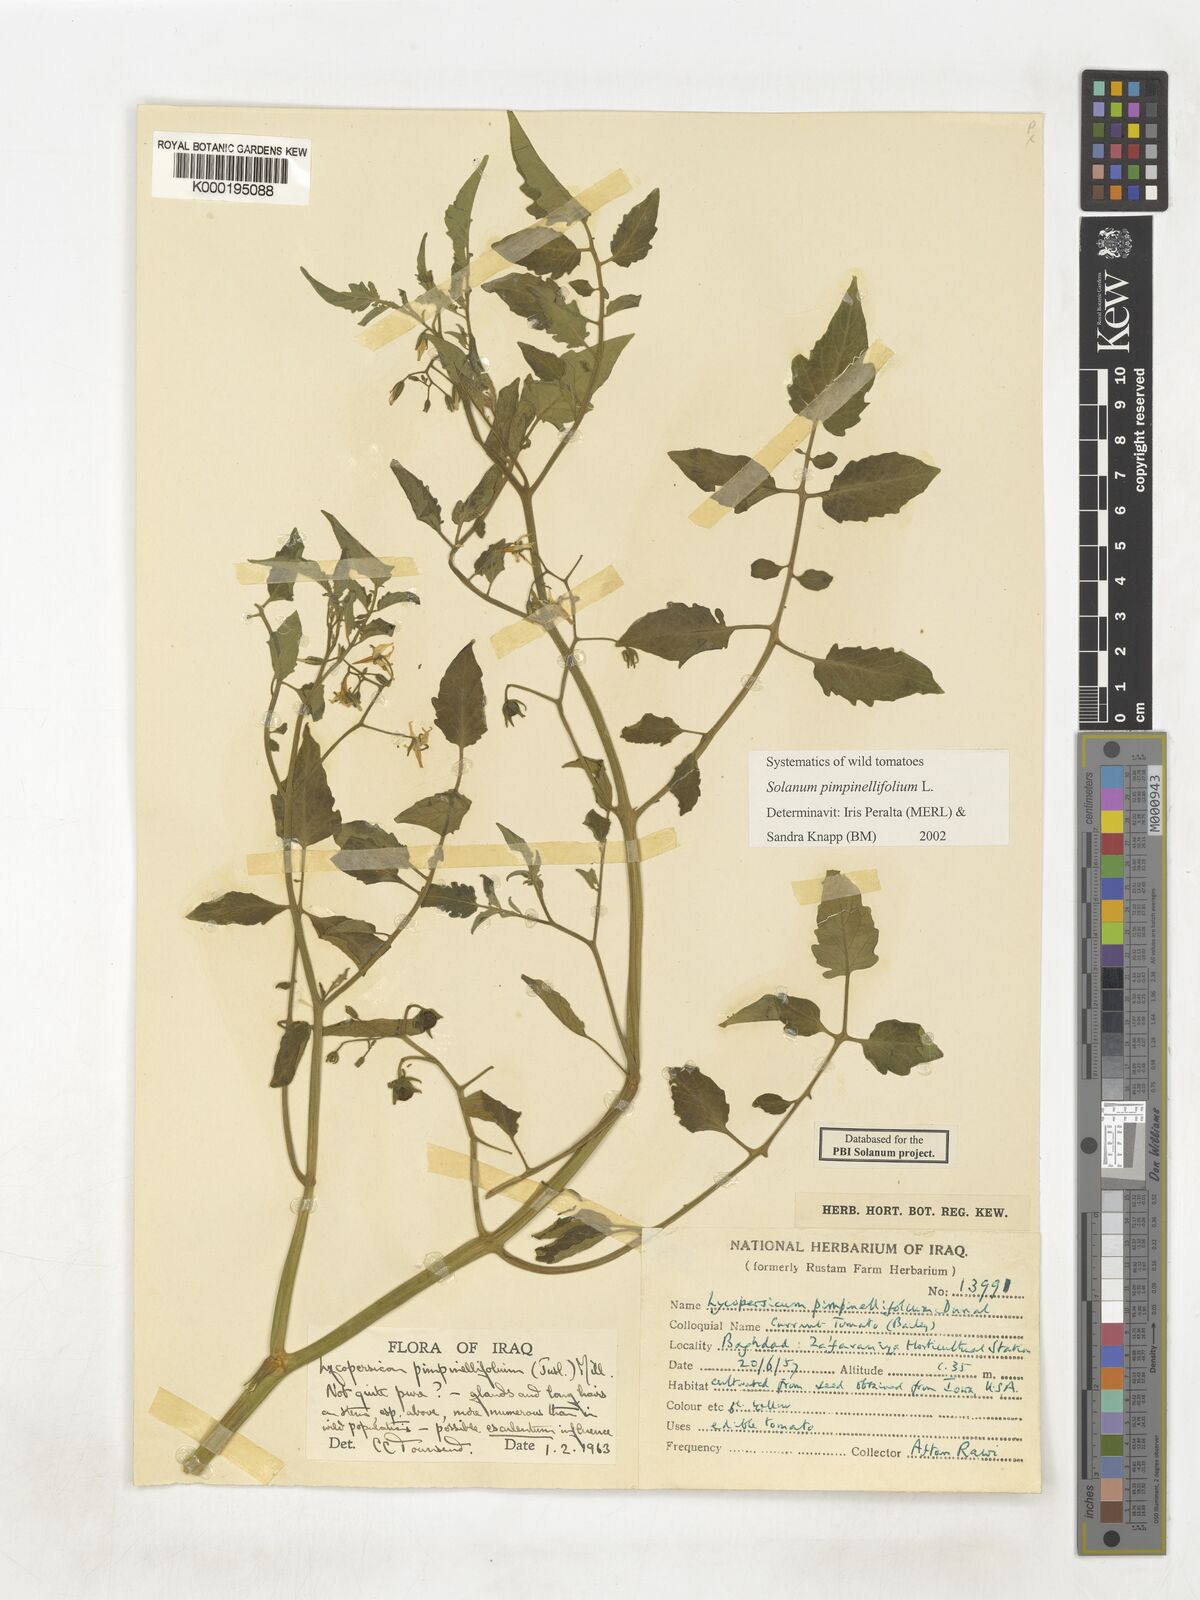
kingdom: Plantae
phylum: Tracheophyta
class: Magnoliopsida
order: Solanales
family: Solanaceae
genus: Solanum
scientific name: Solanum pimpinellifolium
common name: Currant-tomato
